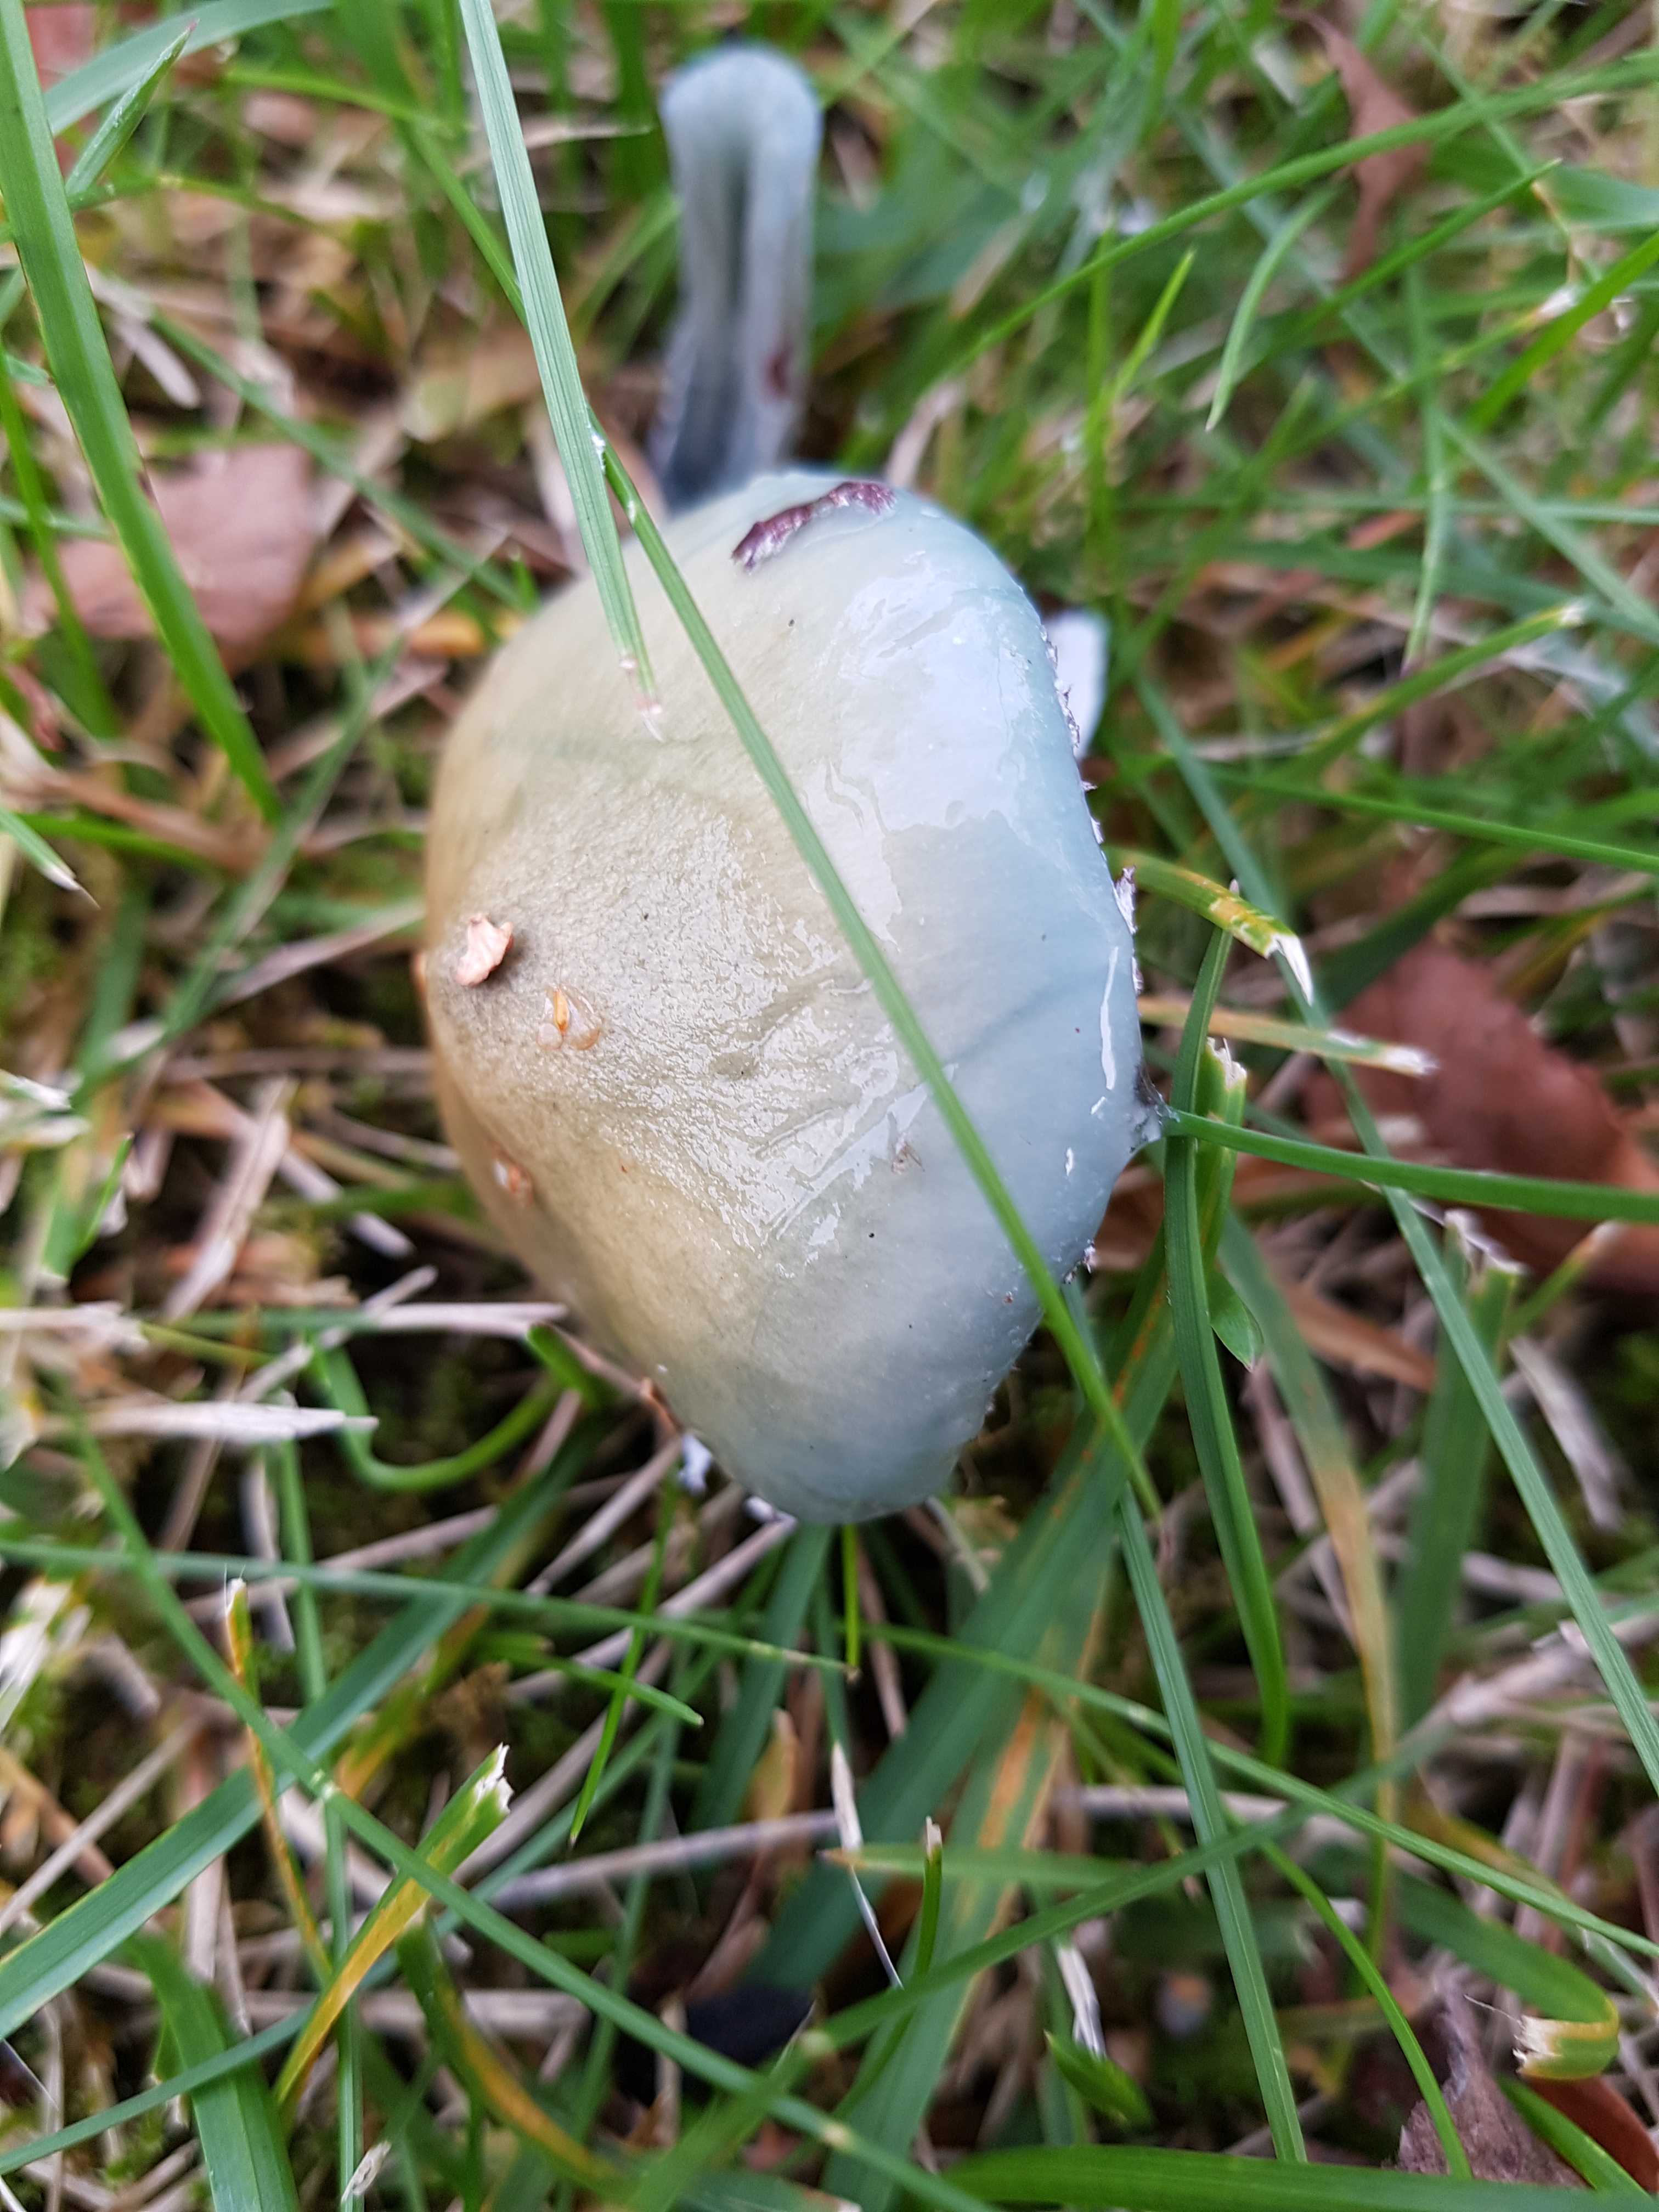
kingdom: Fungi
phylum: Basidiomycota
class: Agaricomycetes
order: Agaricales
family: Strophariaceae
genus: Stropharia
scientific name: Stropharia cyanea
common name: blågrøn bredblad
